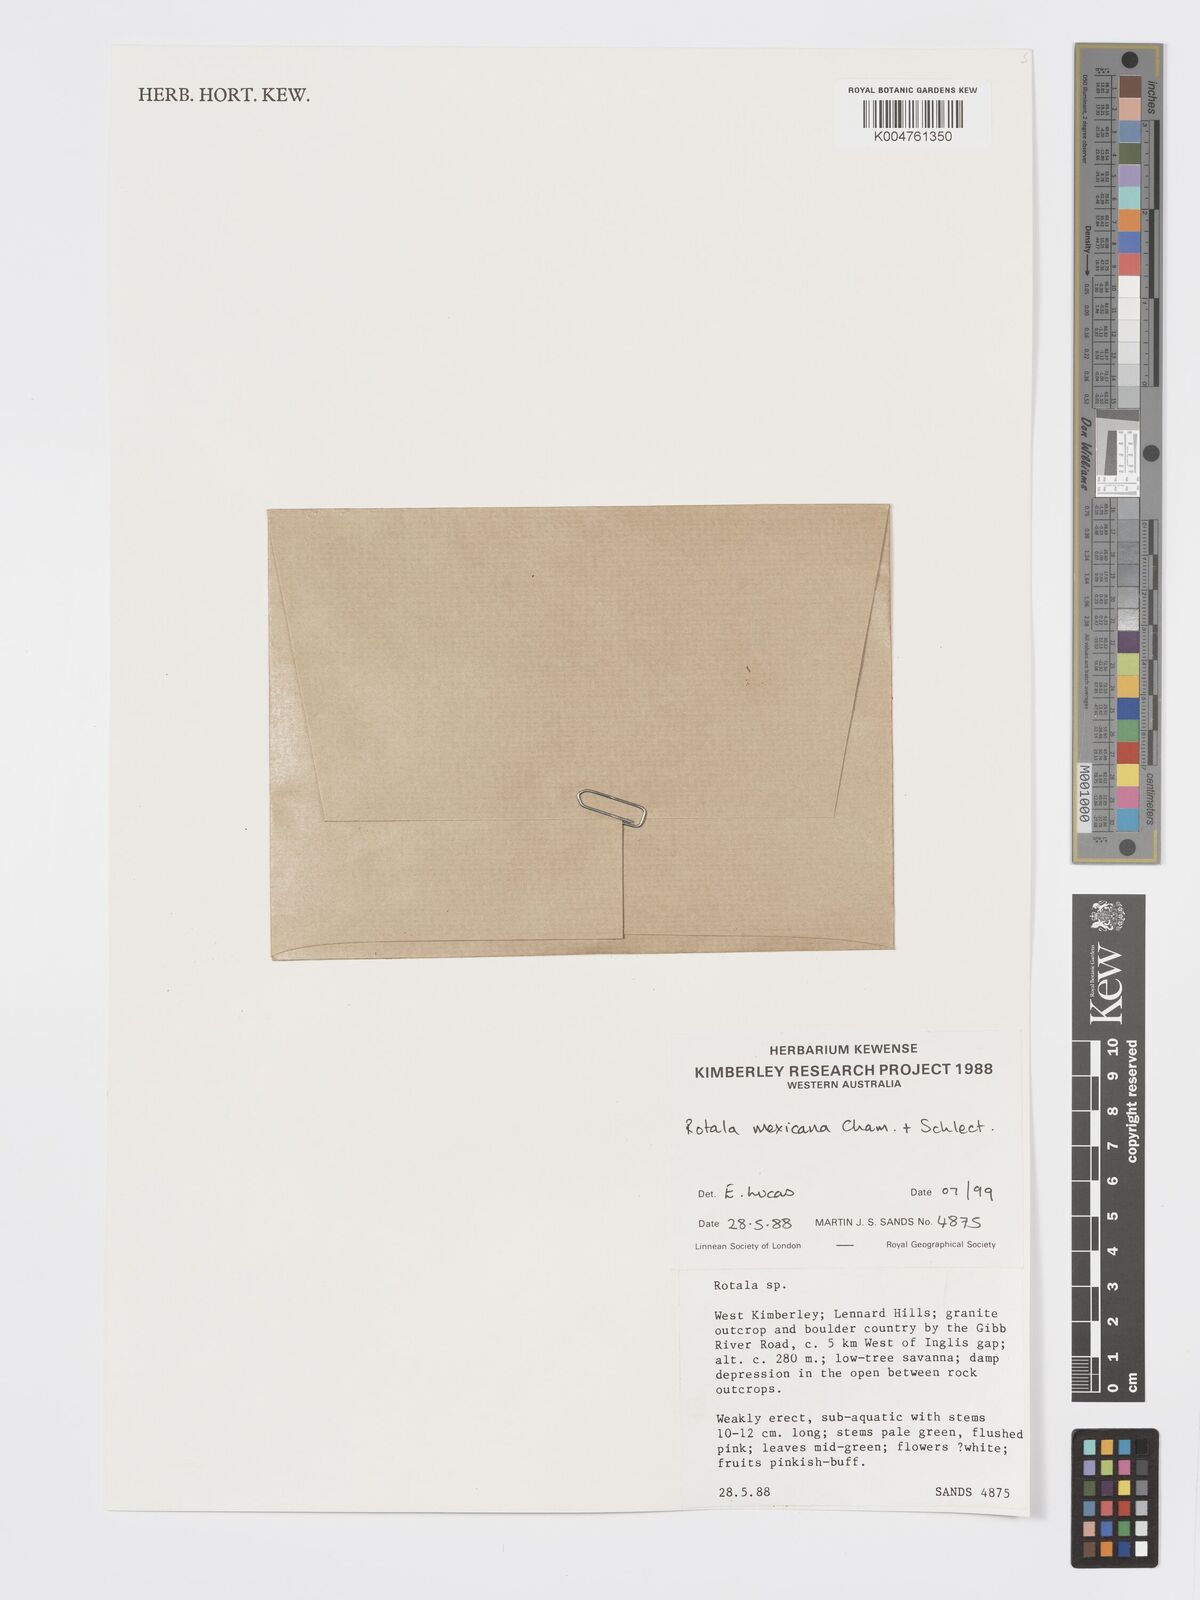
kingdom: Plantae
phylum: Tracheophyta
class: Magnoliopsida
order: Myrtales
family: Lythraceae
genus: Rotala
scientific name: Rotala mexicana
